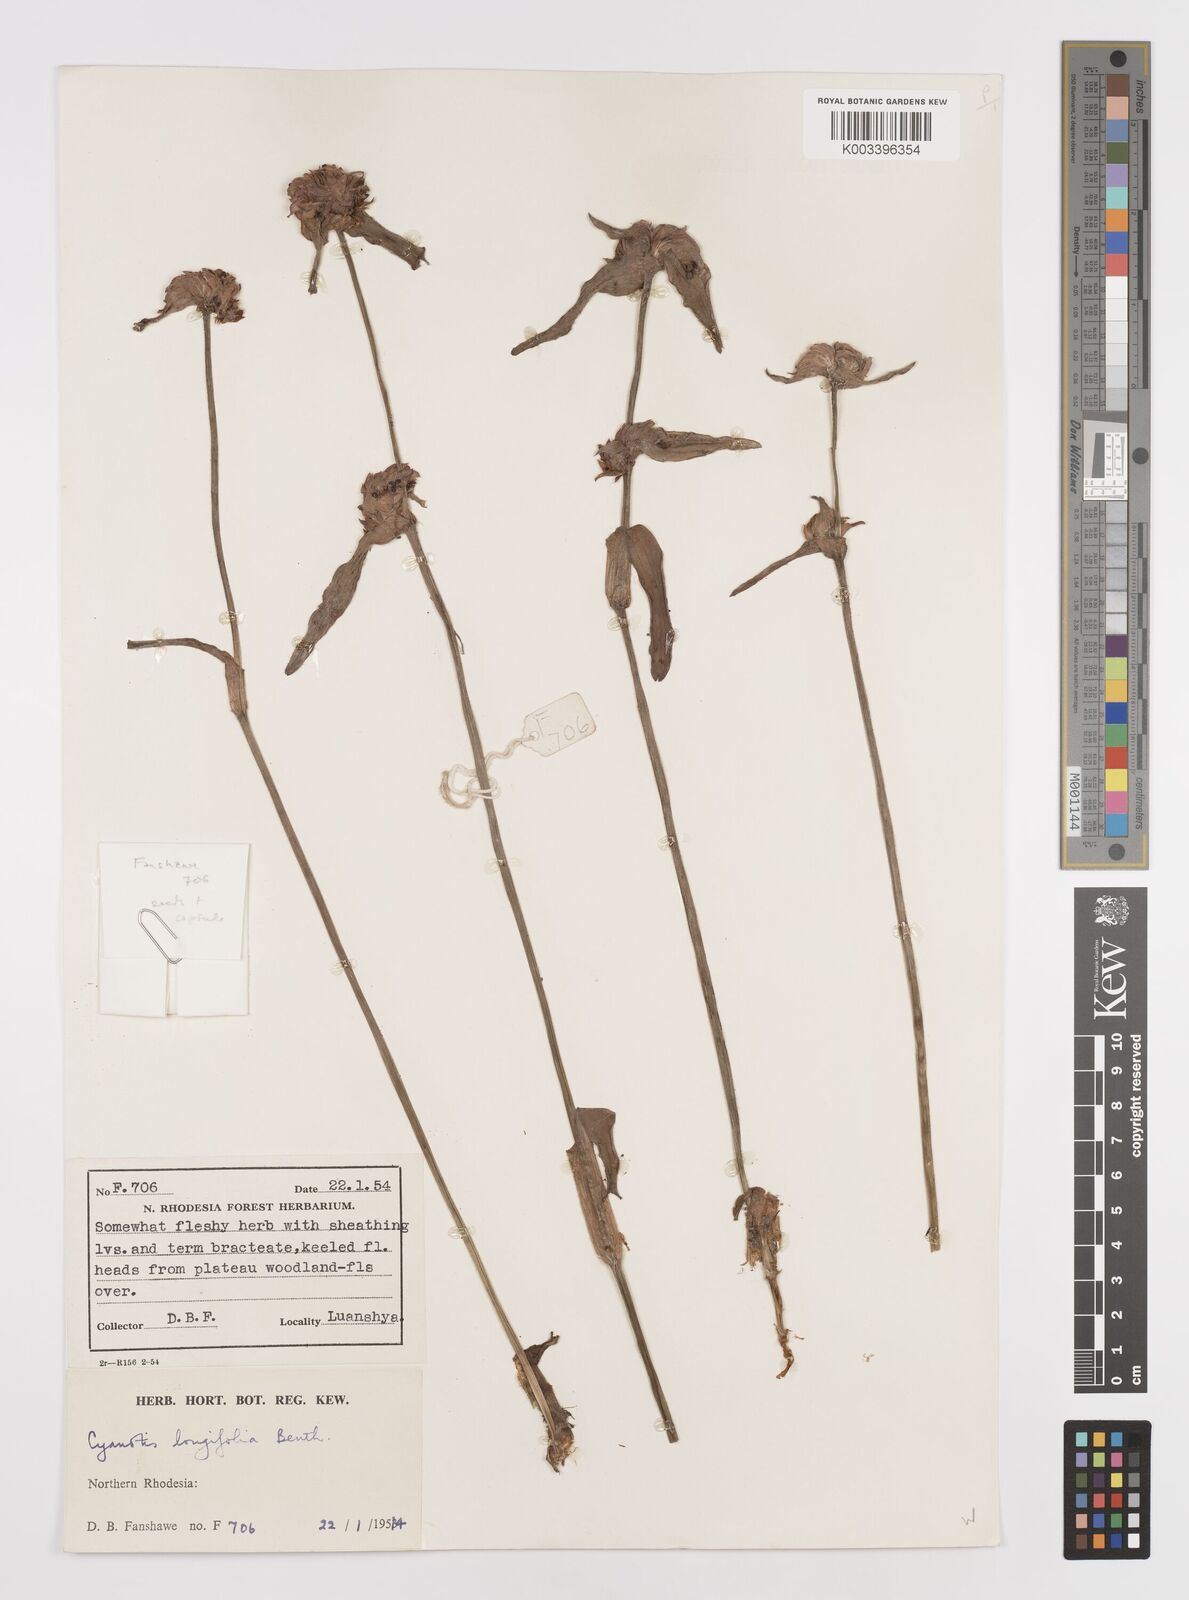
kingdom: Plantae
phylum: Tracheophyta
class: Liliopsida
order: Commelinales
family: Commelinaceae
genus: Cyanotis
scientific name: Cyanotis longifolia
